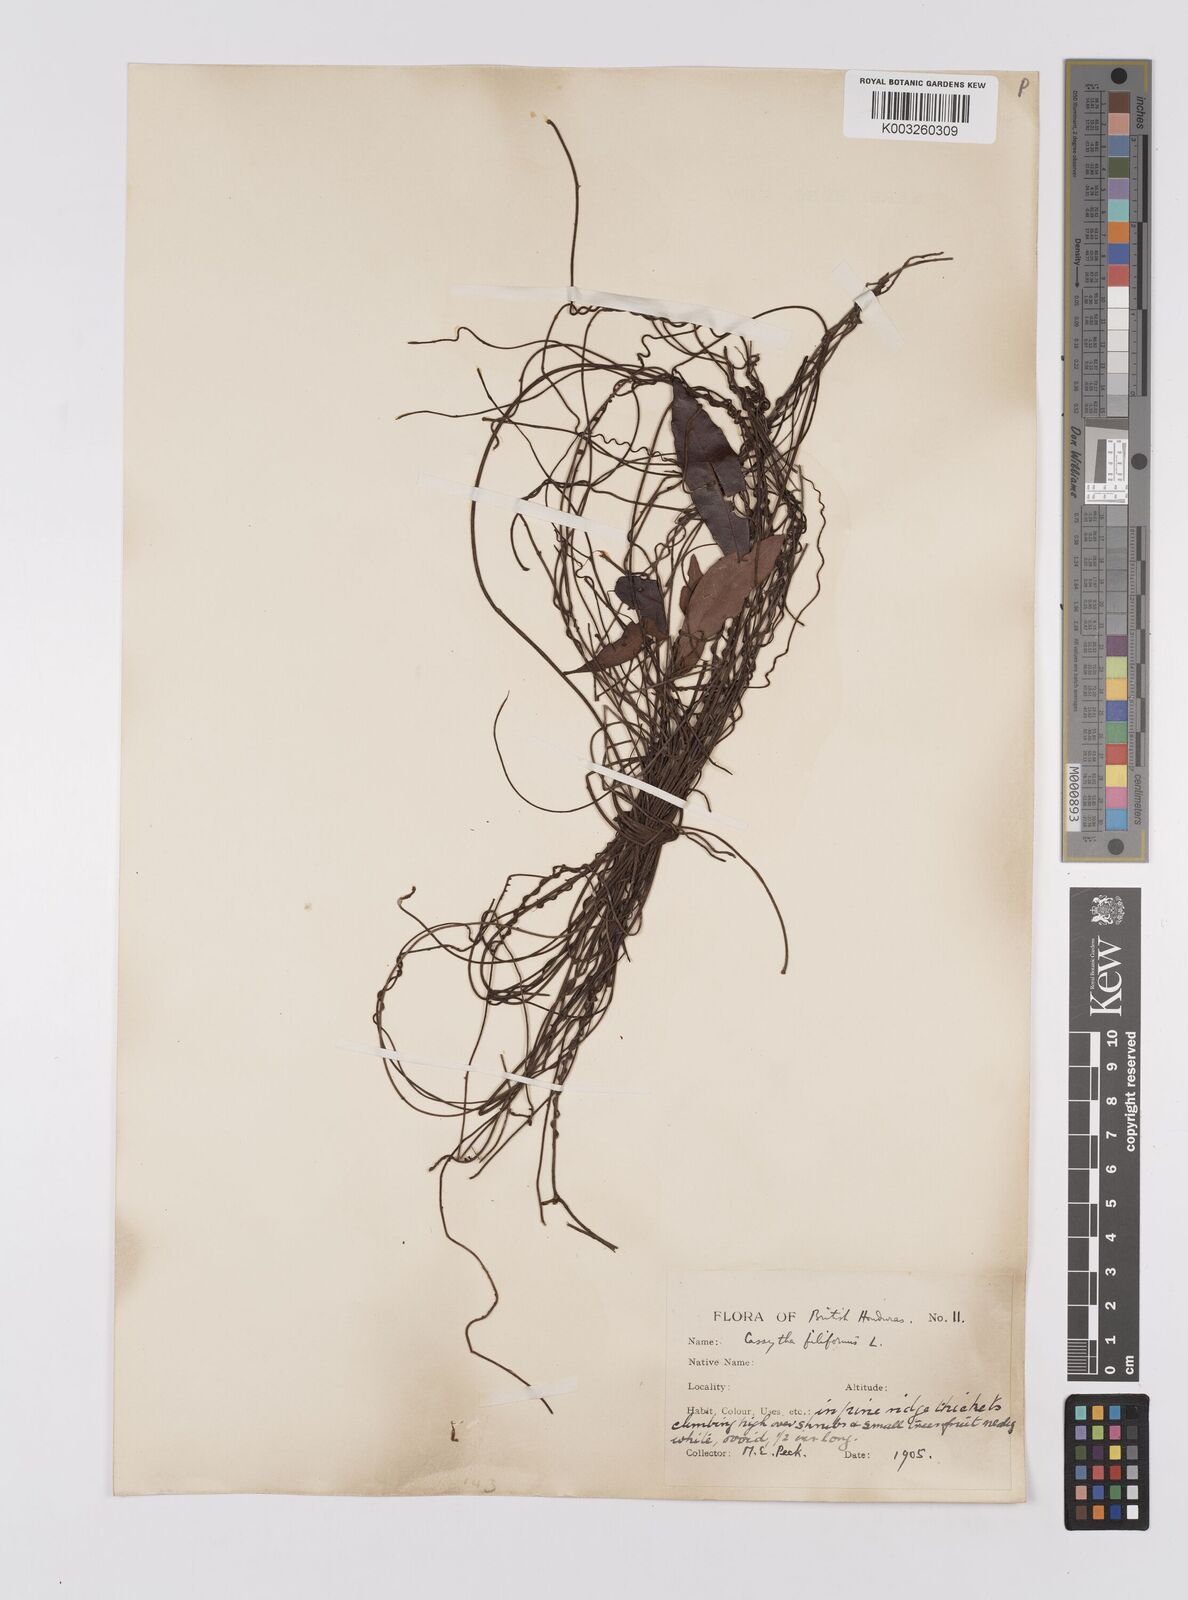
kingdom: Plantae
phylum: Tracheophyta
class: Magnoliopsida
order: Laurales
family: Lauraceae
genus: Cassytha
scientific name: Cassytha filiformis
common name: Dodder-laurel
